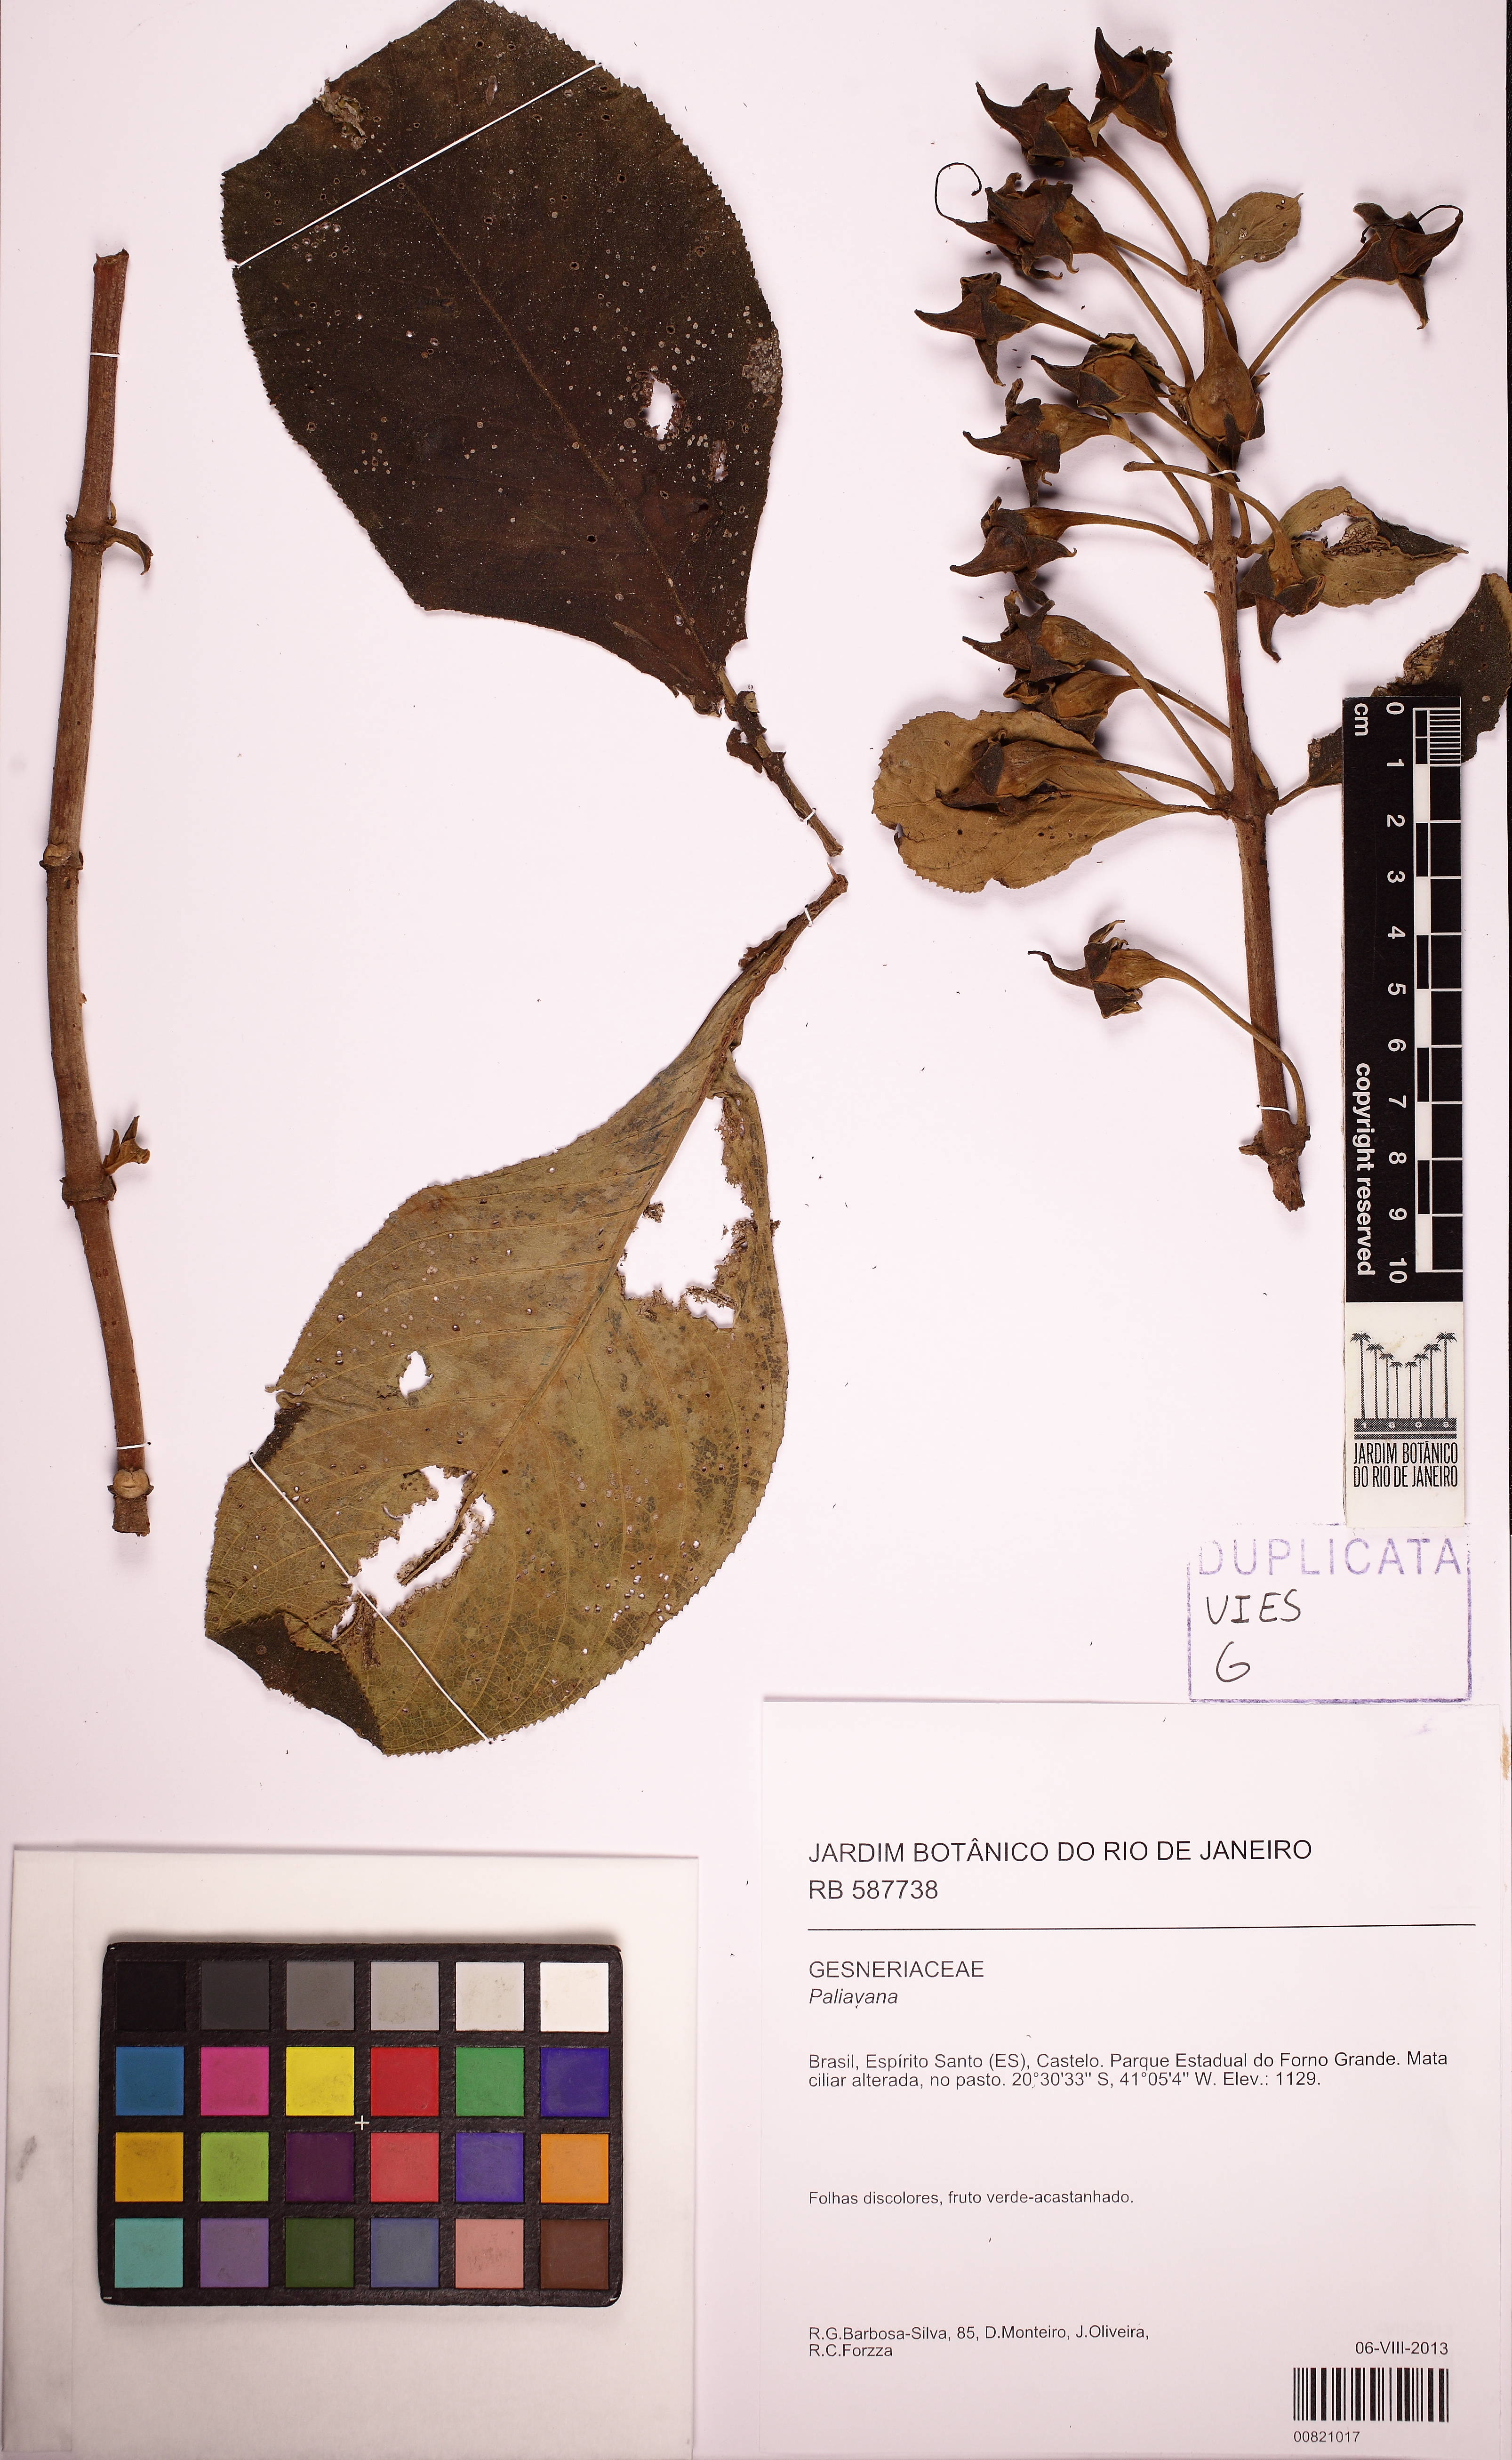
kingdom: Plantae
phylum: Tracheophyta
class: Magnoliopsida
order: Lamiales
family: Gesneriaceae
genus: Paliavana
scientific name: Paliavana
